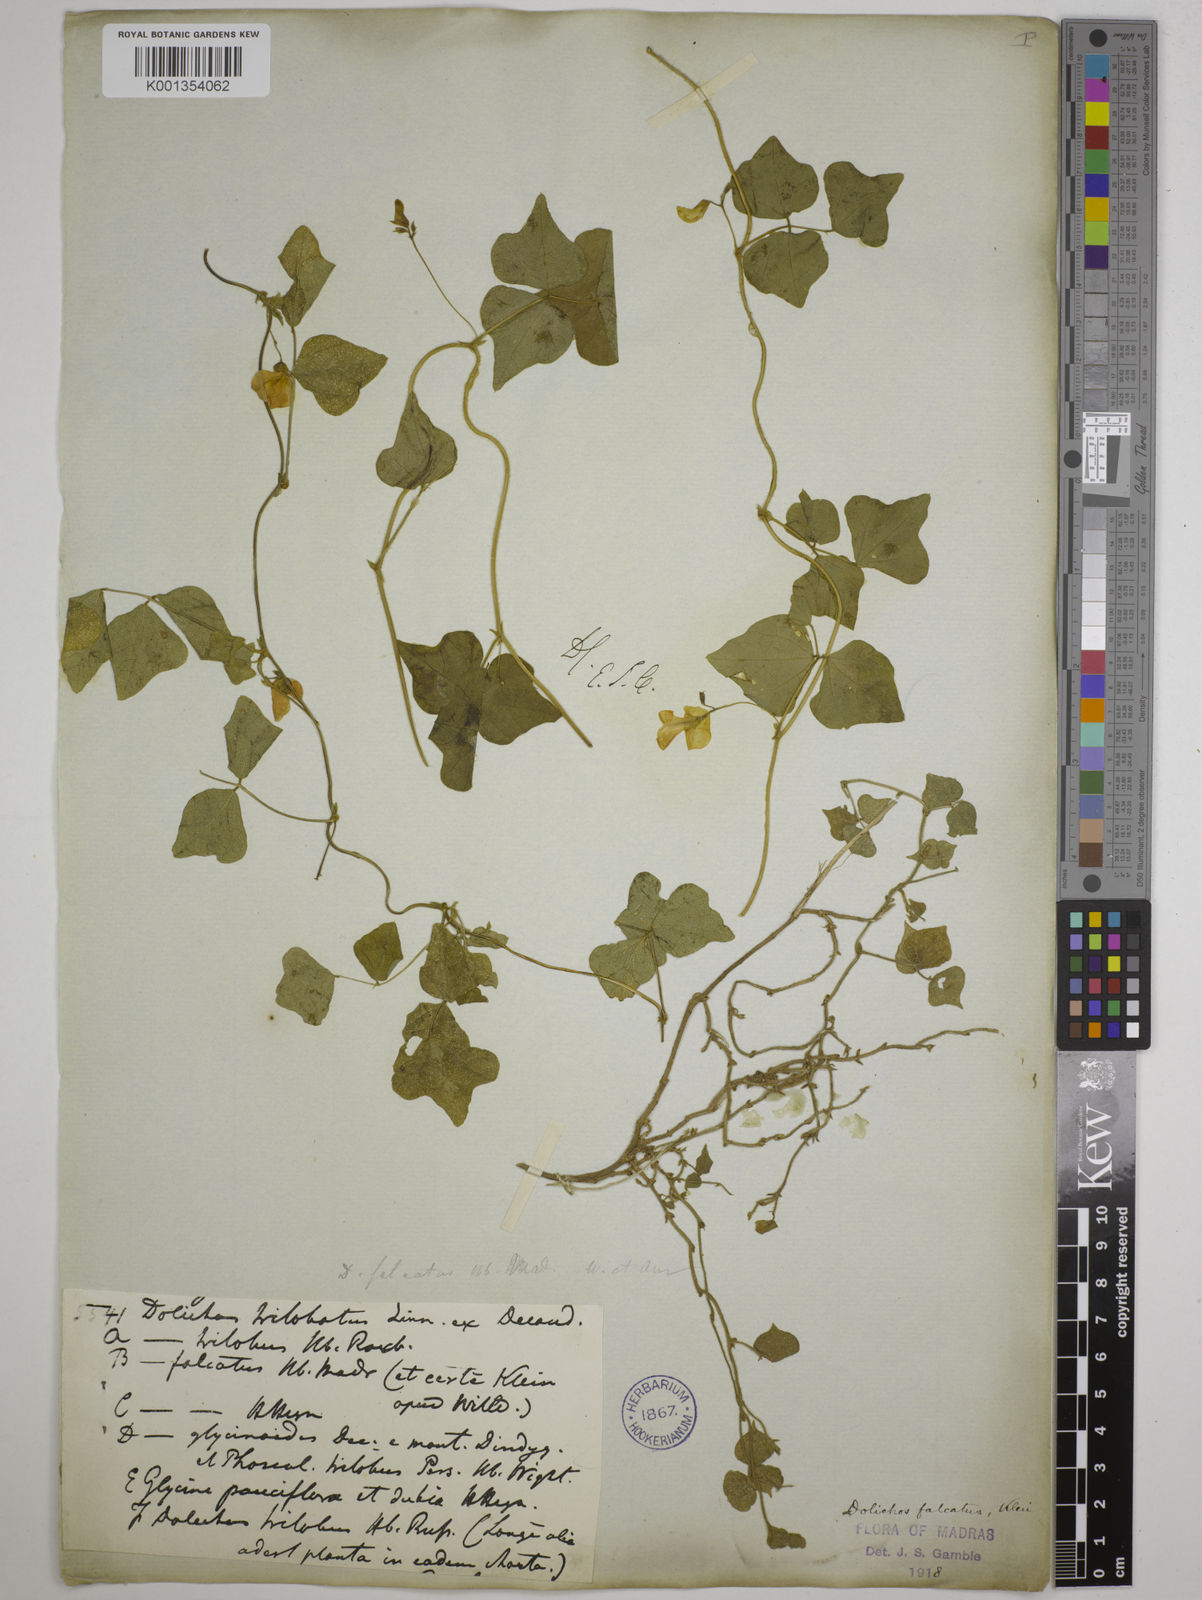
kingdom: Plantae
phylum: Tracheophyta
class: Magnoliopsida
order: Fabales
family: Fabaceae
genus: Dolichos
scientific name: Dolichos
